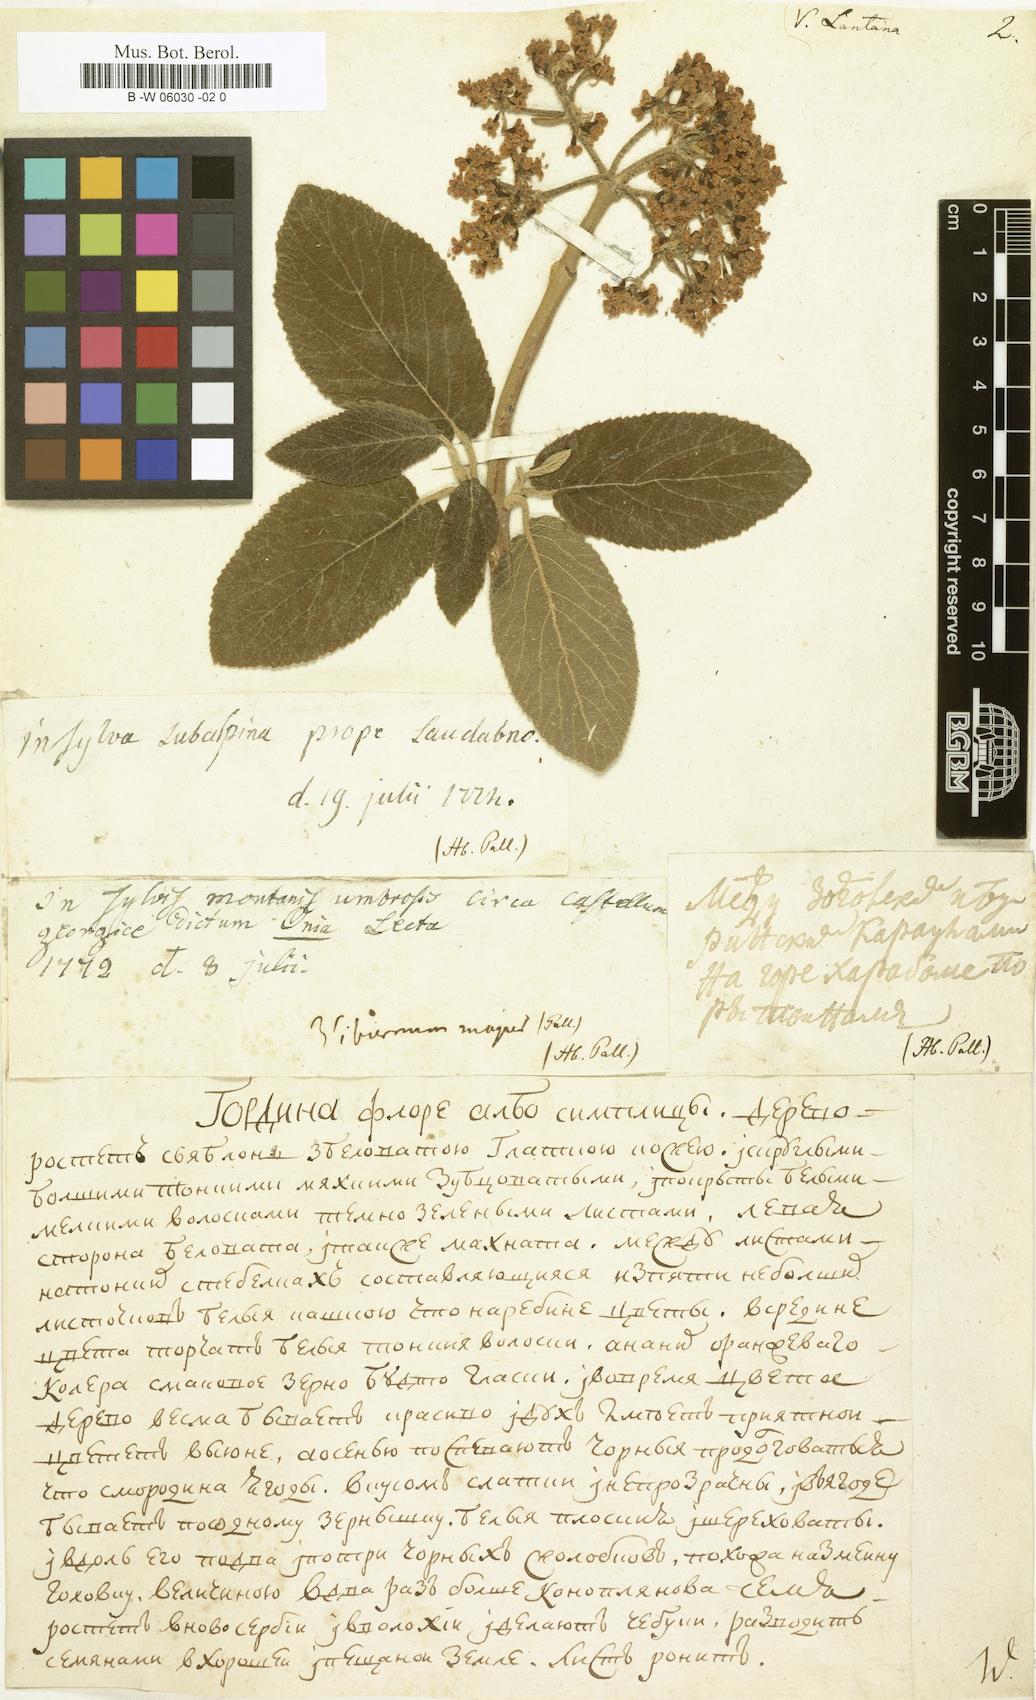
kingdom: Plantae
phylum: Tracheophyta
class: Magnoliopsida
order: Dipsacales
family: Viburnaceae
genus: Viburnum
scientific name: Viburnum lantana
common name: Wayfaring tree
